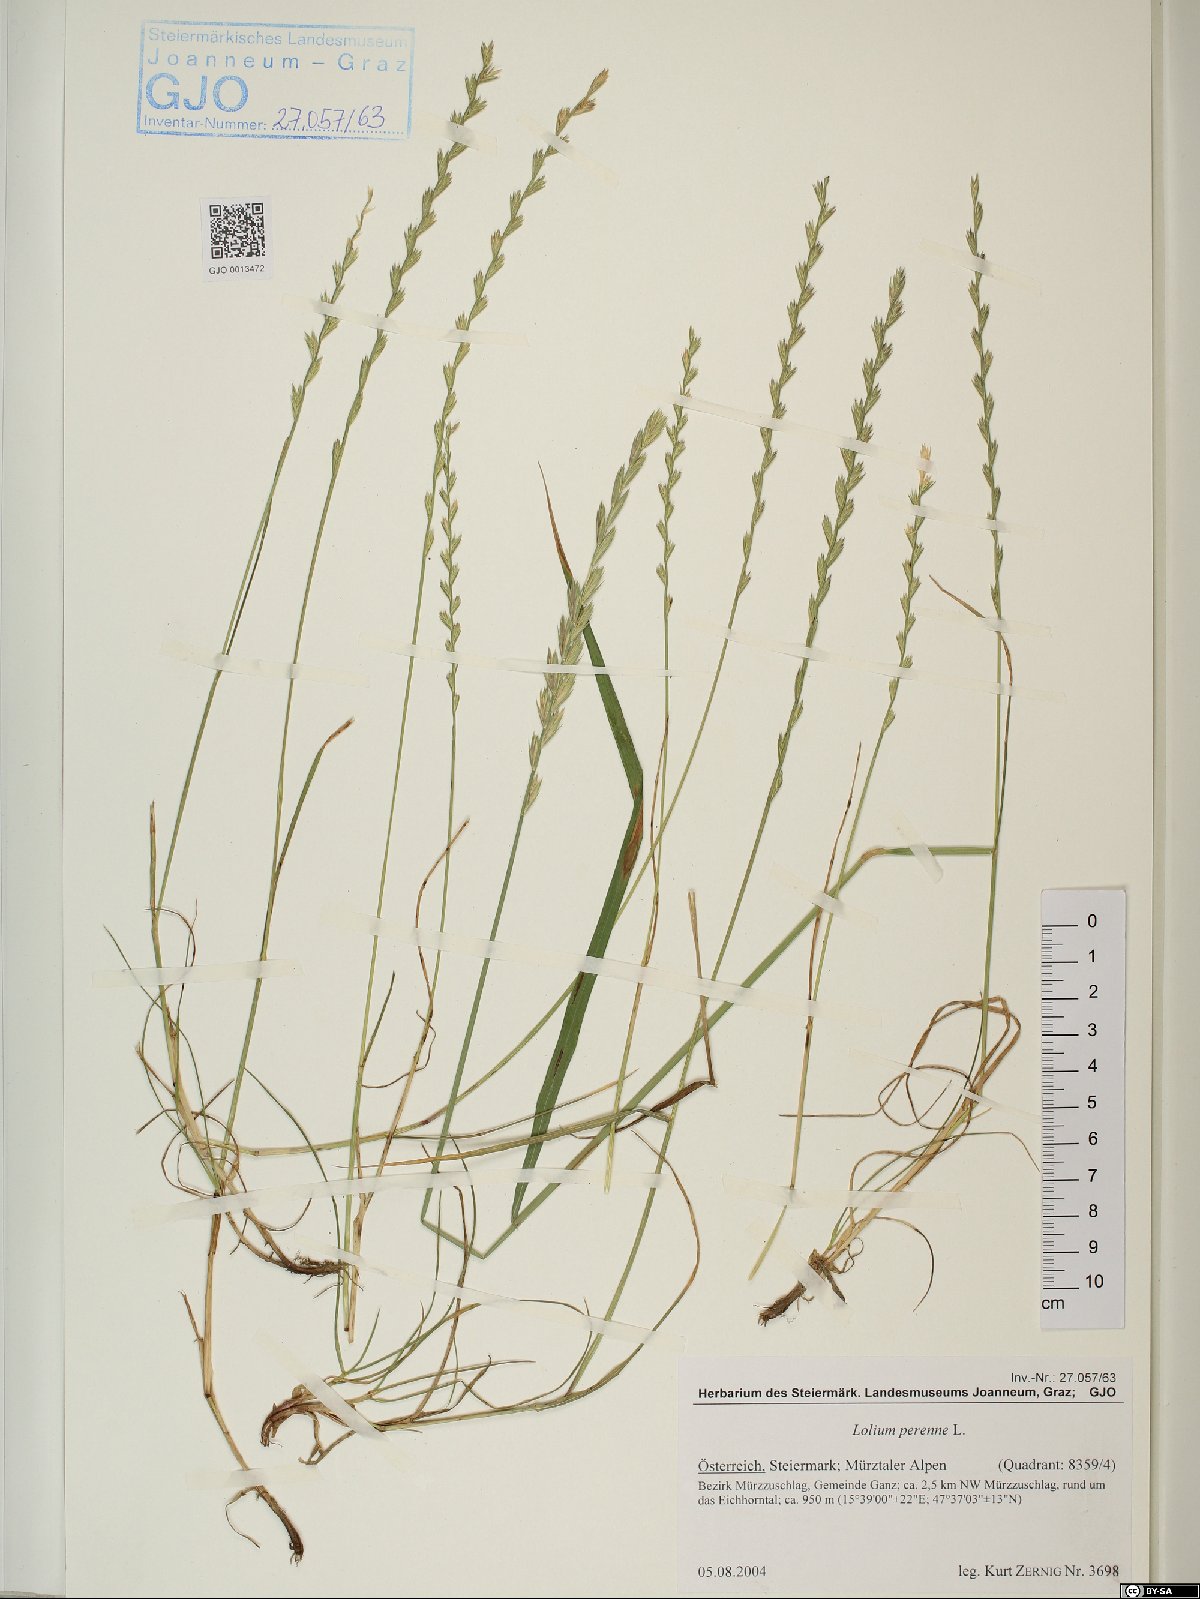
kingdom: Plantae
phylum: Tracheophyta
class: Liliopsida
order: Poales
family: Poaceae
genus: Lolium
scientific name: Lolium perenne
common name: Perennial ryegrass
